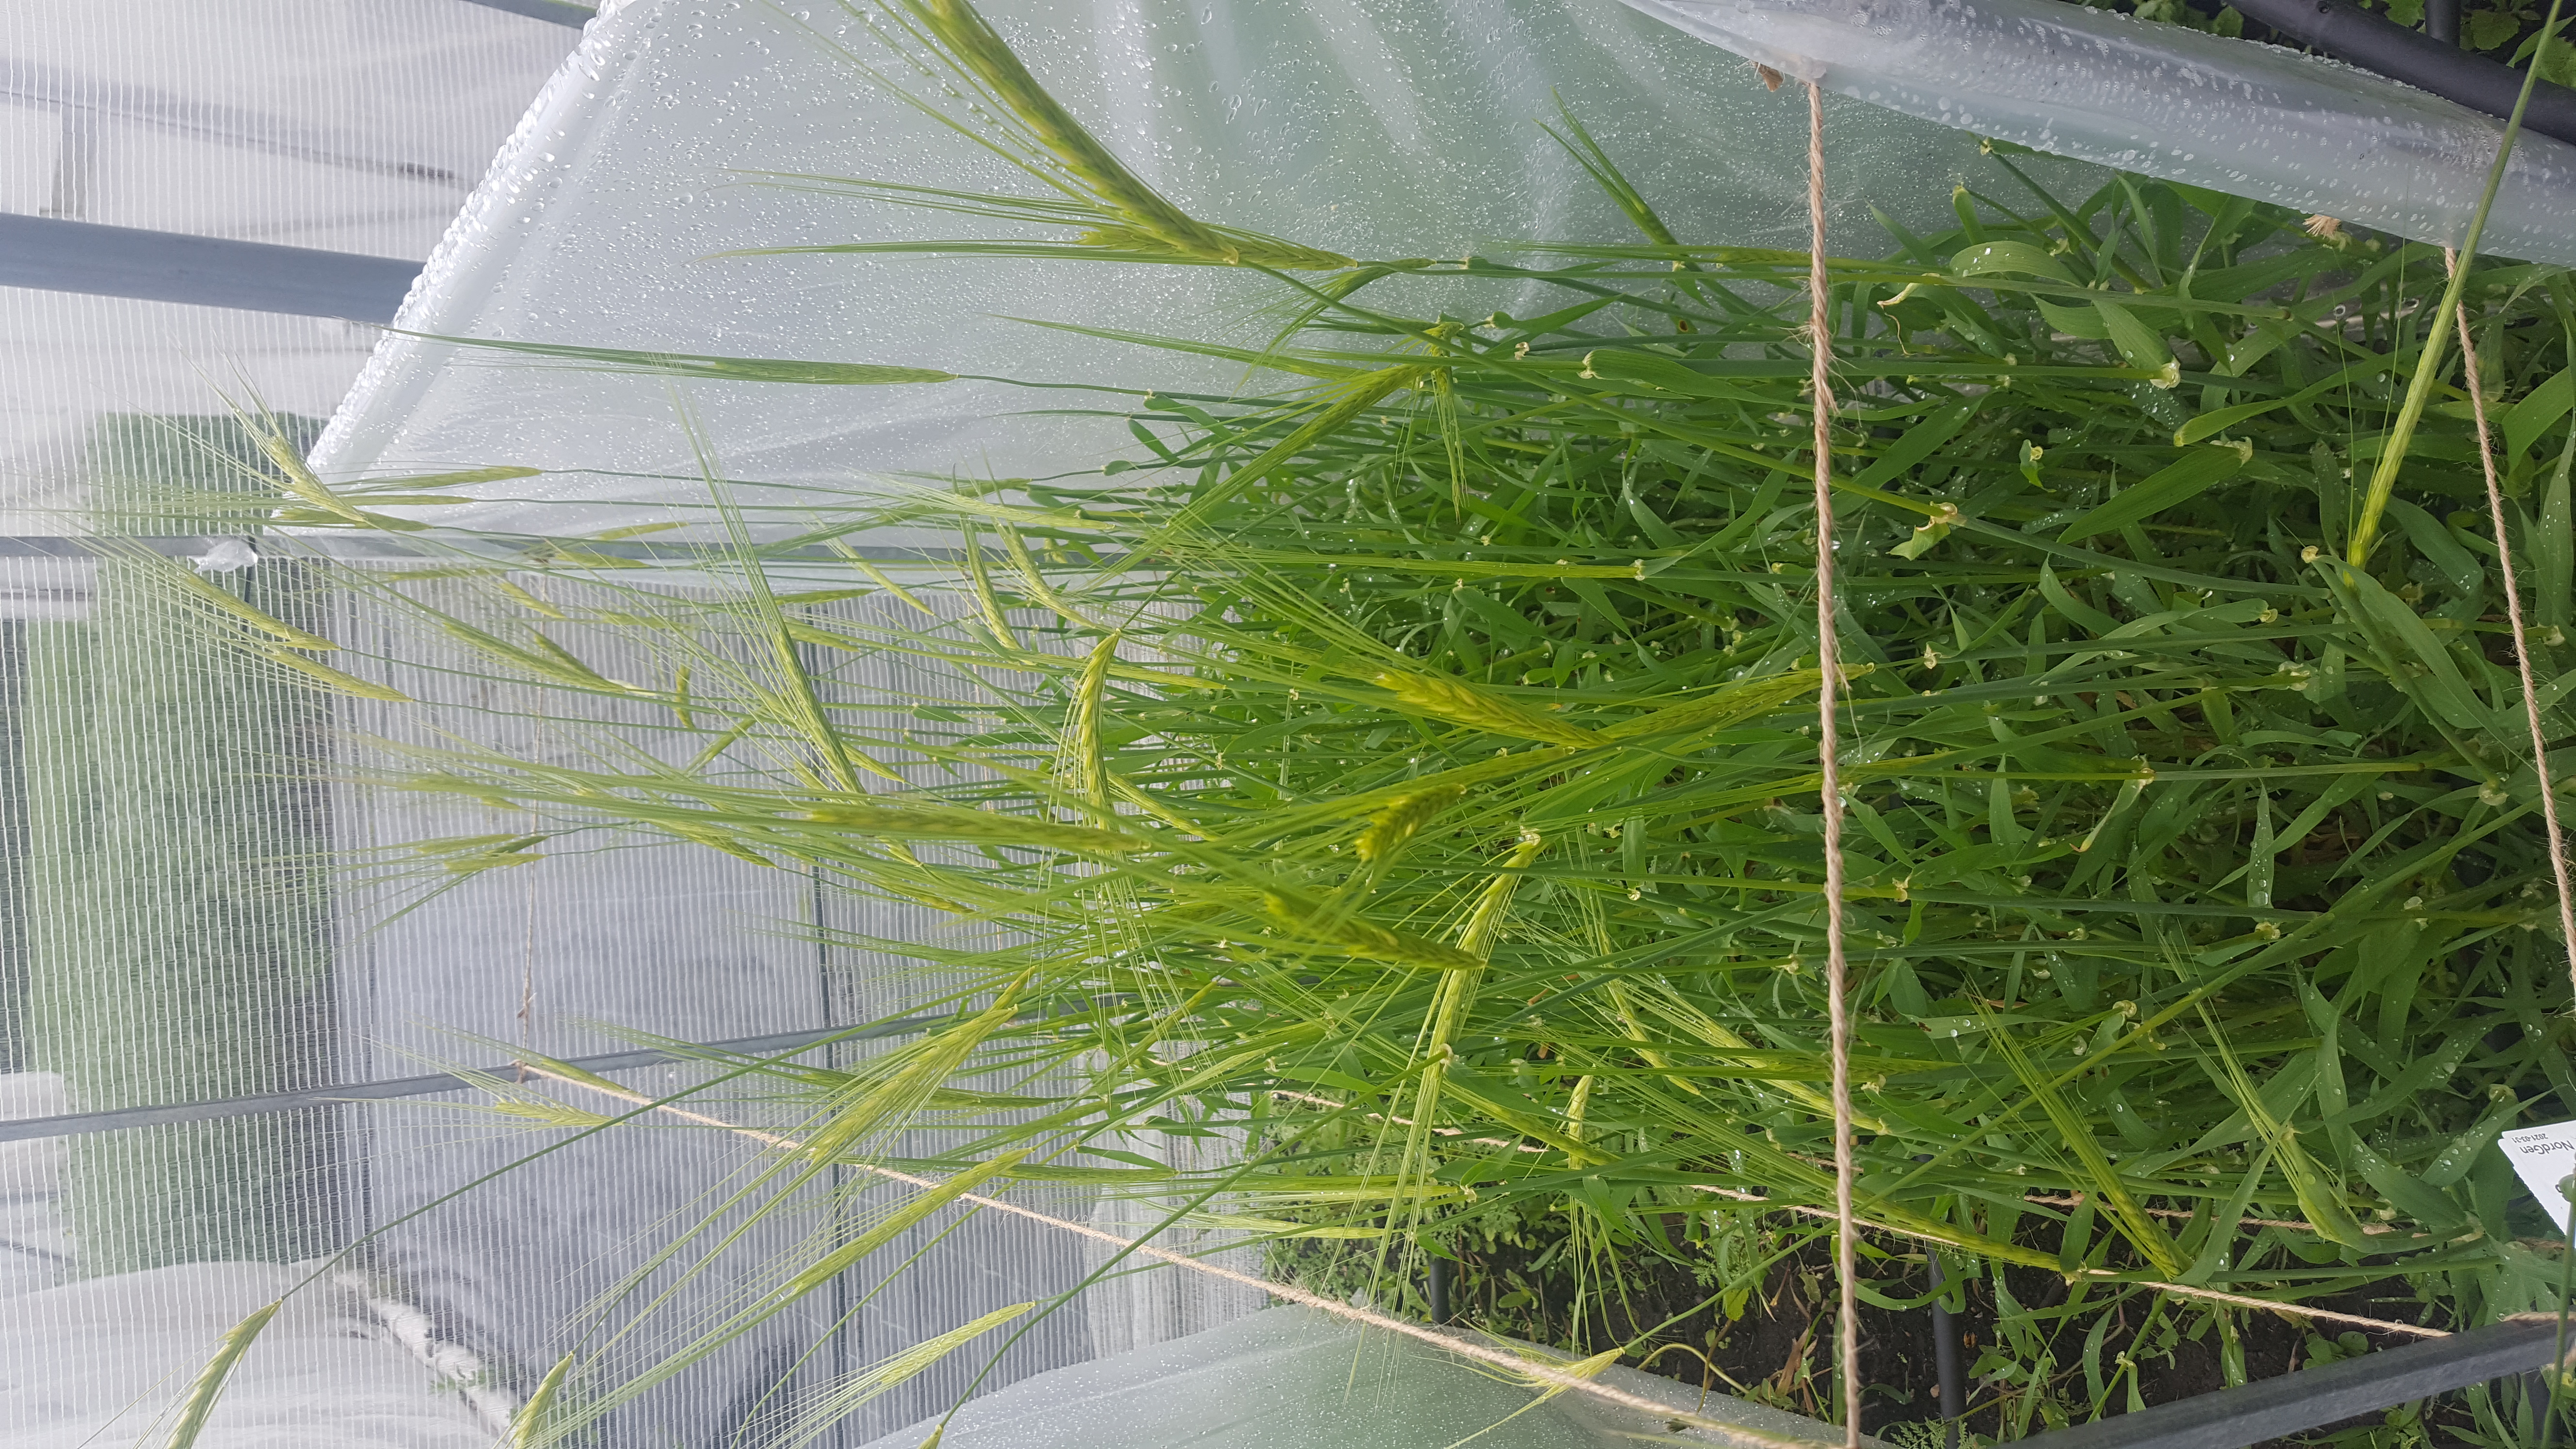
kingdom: Plantae
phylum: Tracheophyta
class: Liliopsida
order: Poales
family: Poaceae
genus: Hordeum
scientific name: Hordeum spontaneum
